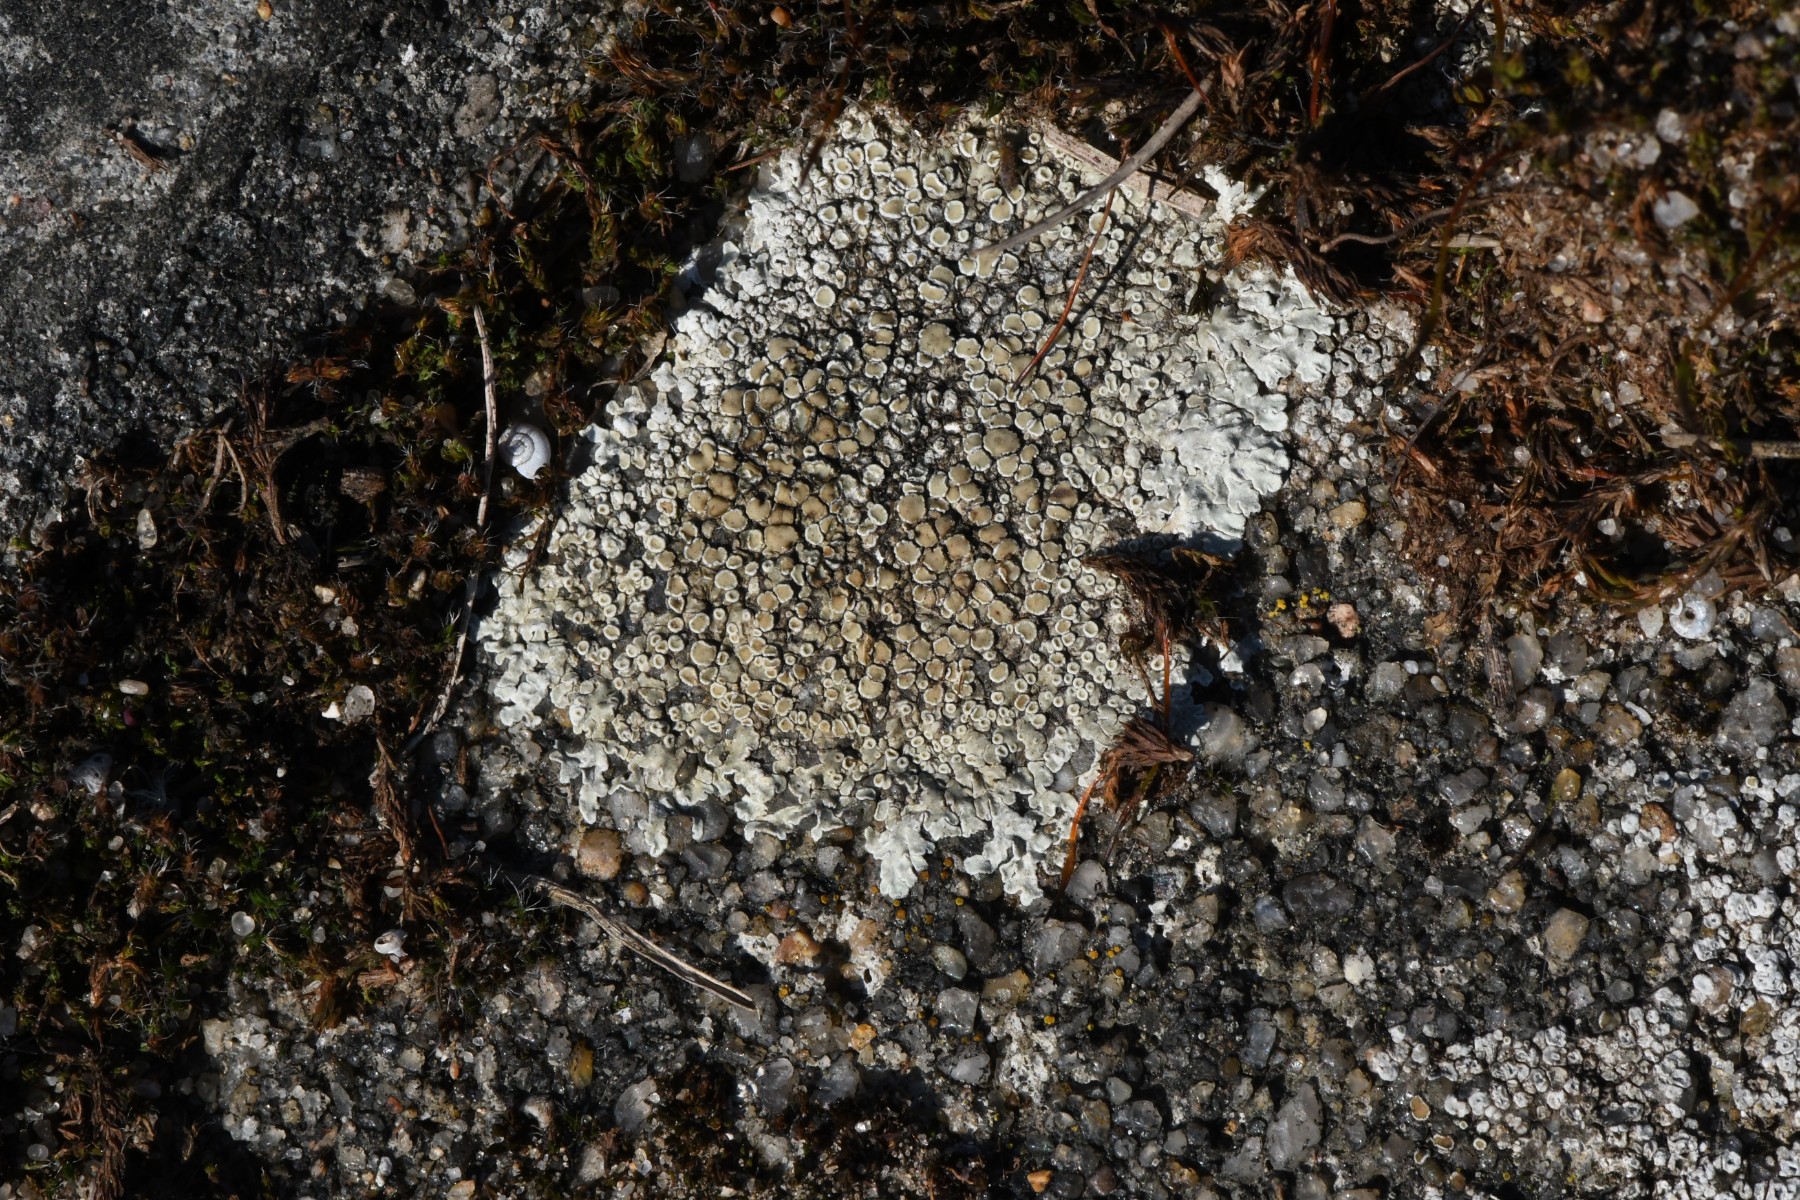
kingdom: Fungi
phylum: Ascomycota
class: Lecanoromycetes
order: Lecanorales
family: Lecanoraceae
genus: Protoparmeliopsis
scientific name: Protoparmeliopsis muralis
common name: randfliget kantskivelav
